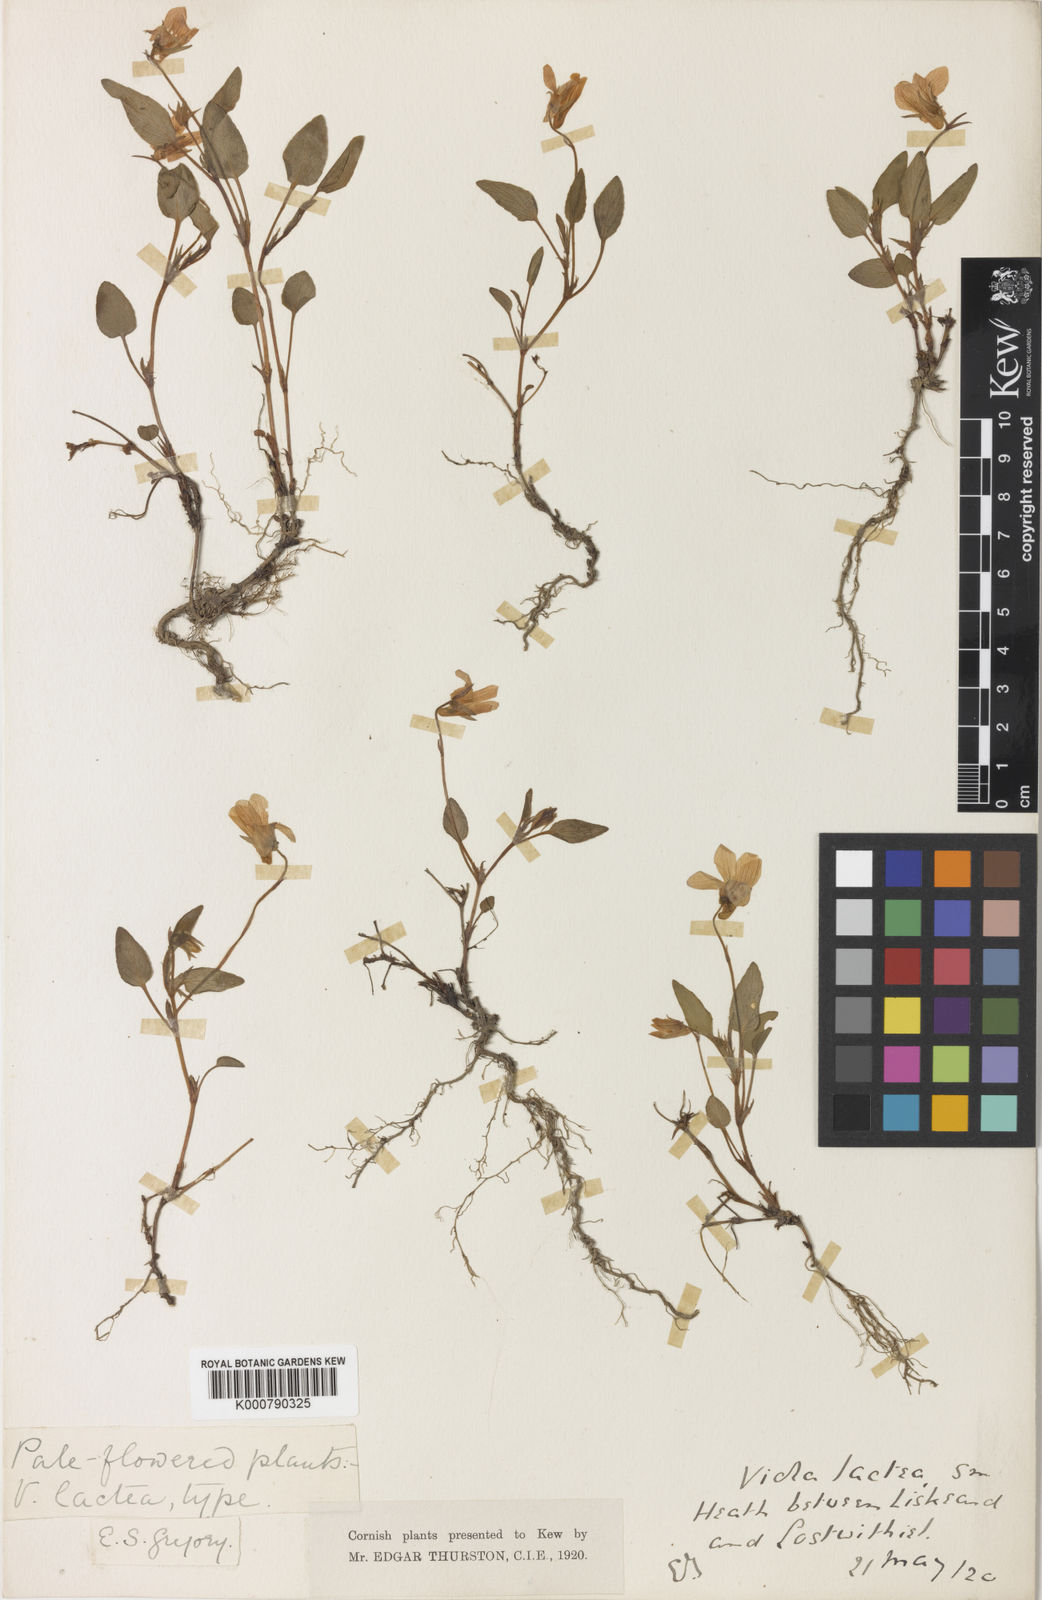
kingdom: Plantae
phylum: Tracheophyta
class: Magnoliopsida
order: Malpighiales
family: Violaceae
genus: Viola
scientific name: Viola lactea
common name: Pale dog-violet
